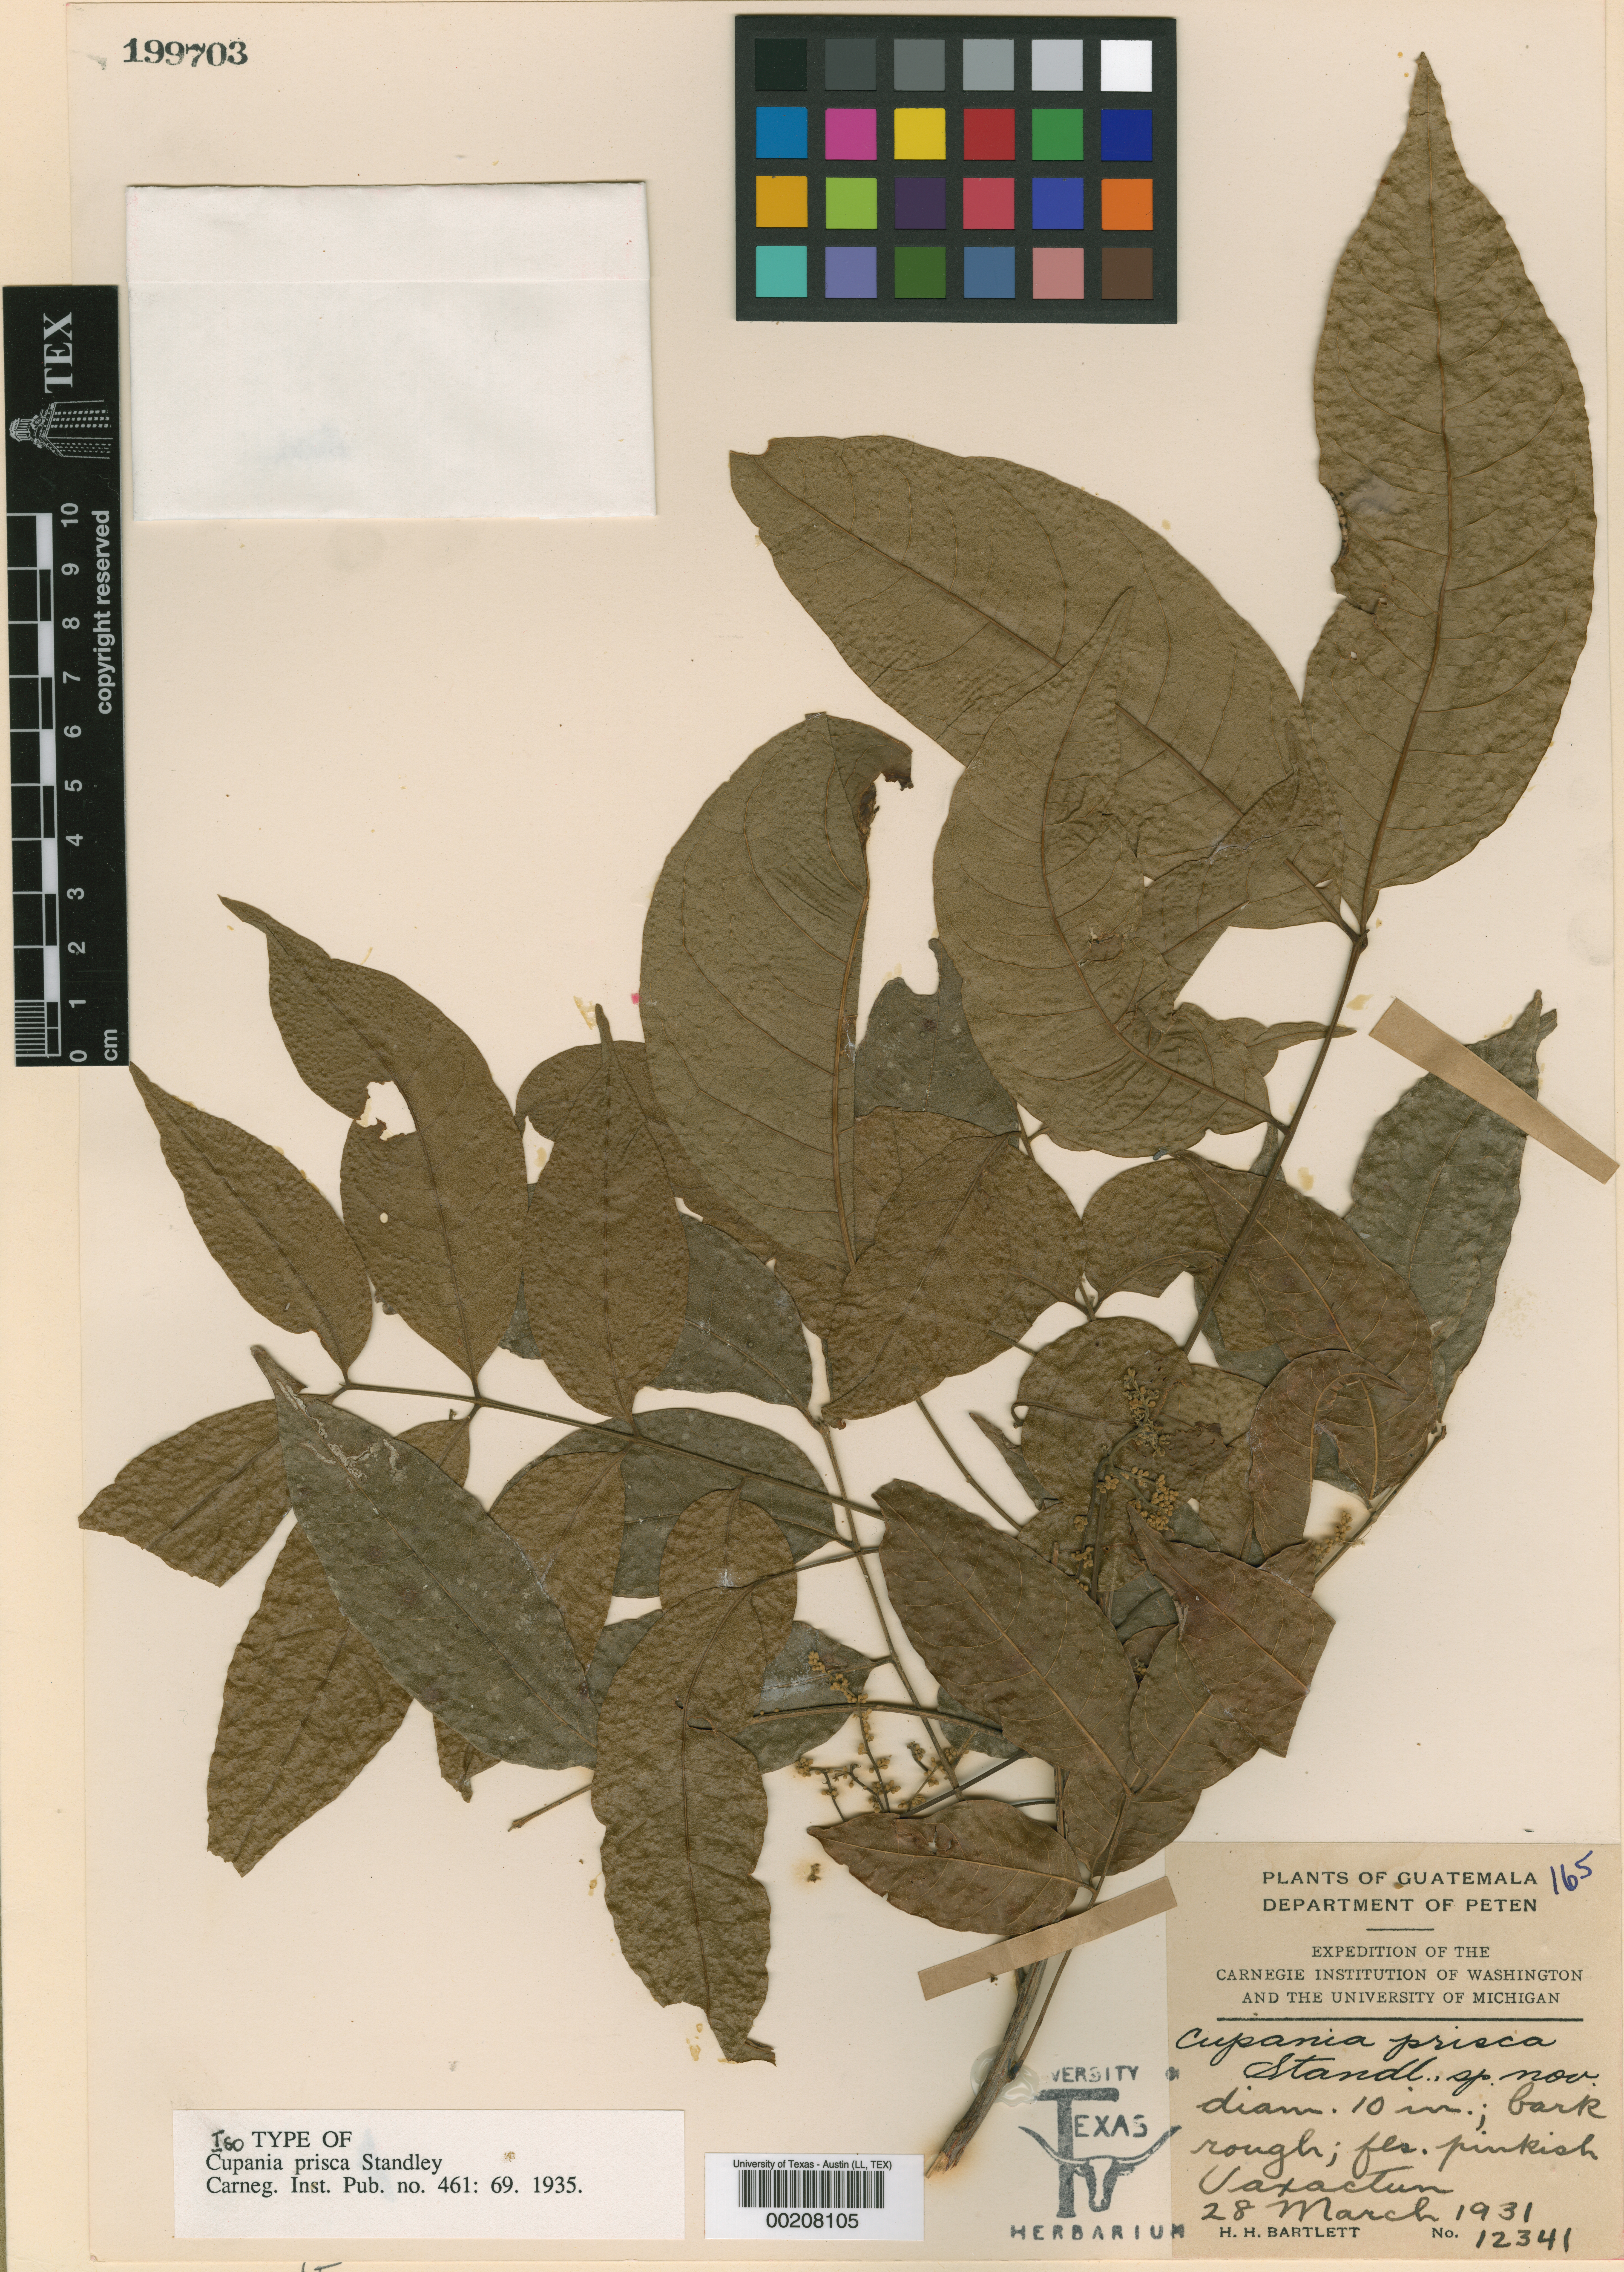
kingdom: Plantae
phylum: Tracheophyta
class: Magnoliopsida
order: Sapindales
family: Sapindaceae
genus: Blomia
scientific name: Blomia prisca
